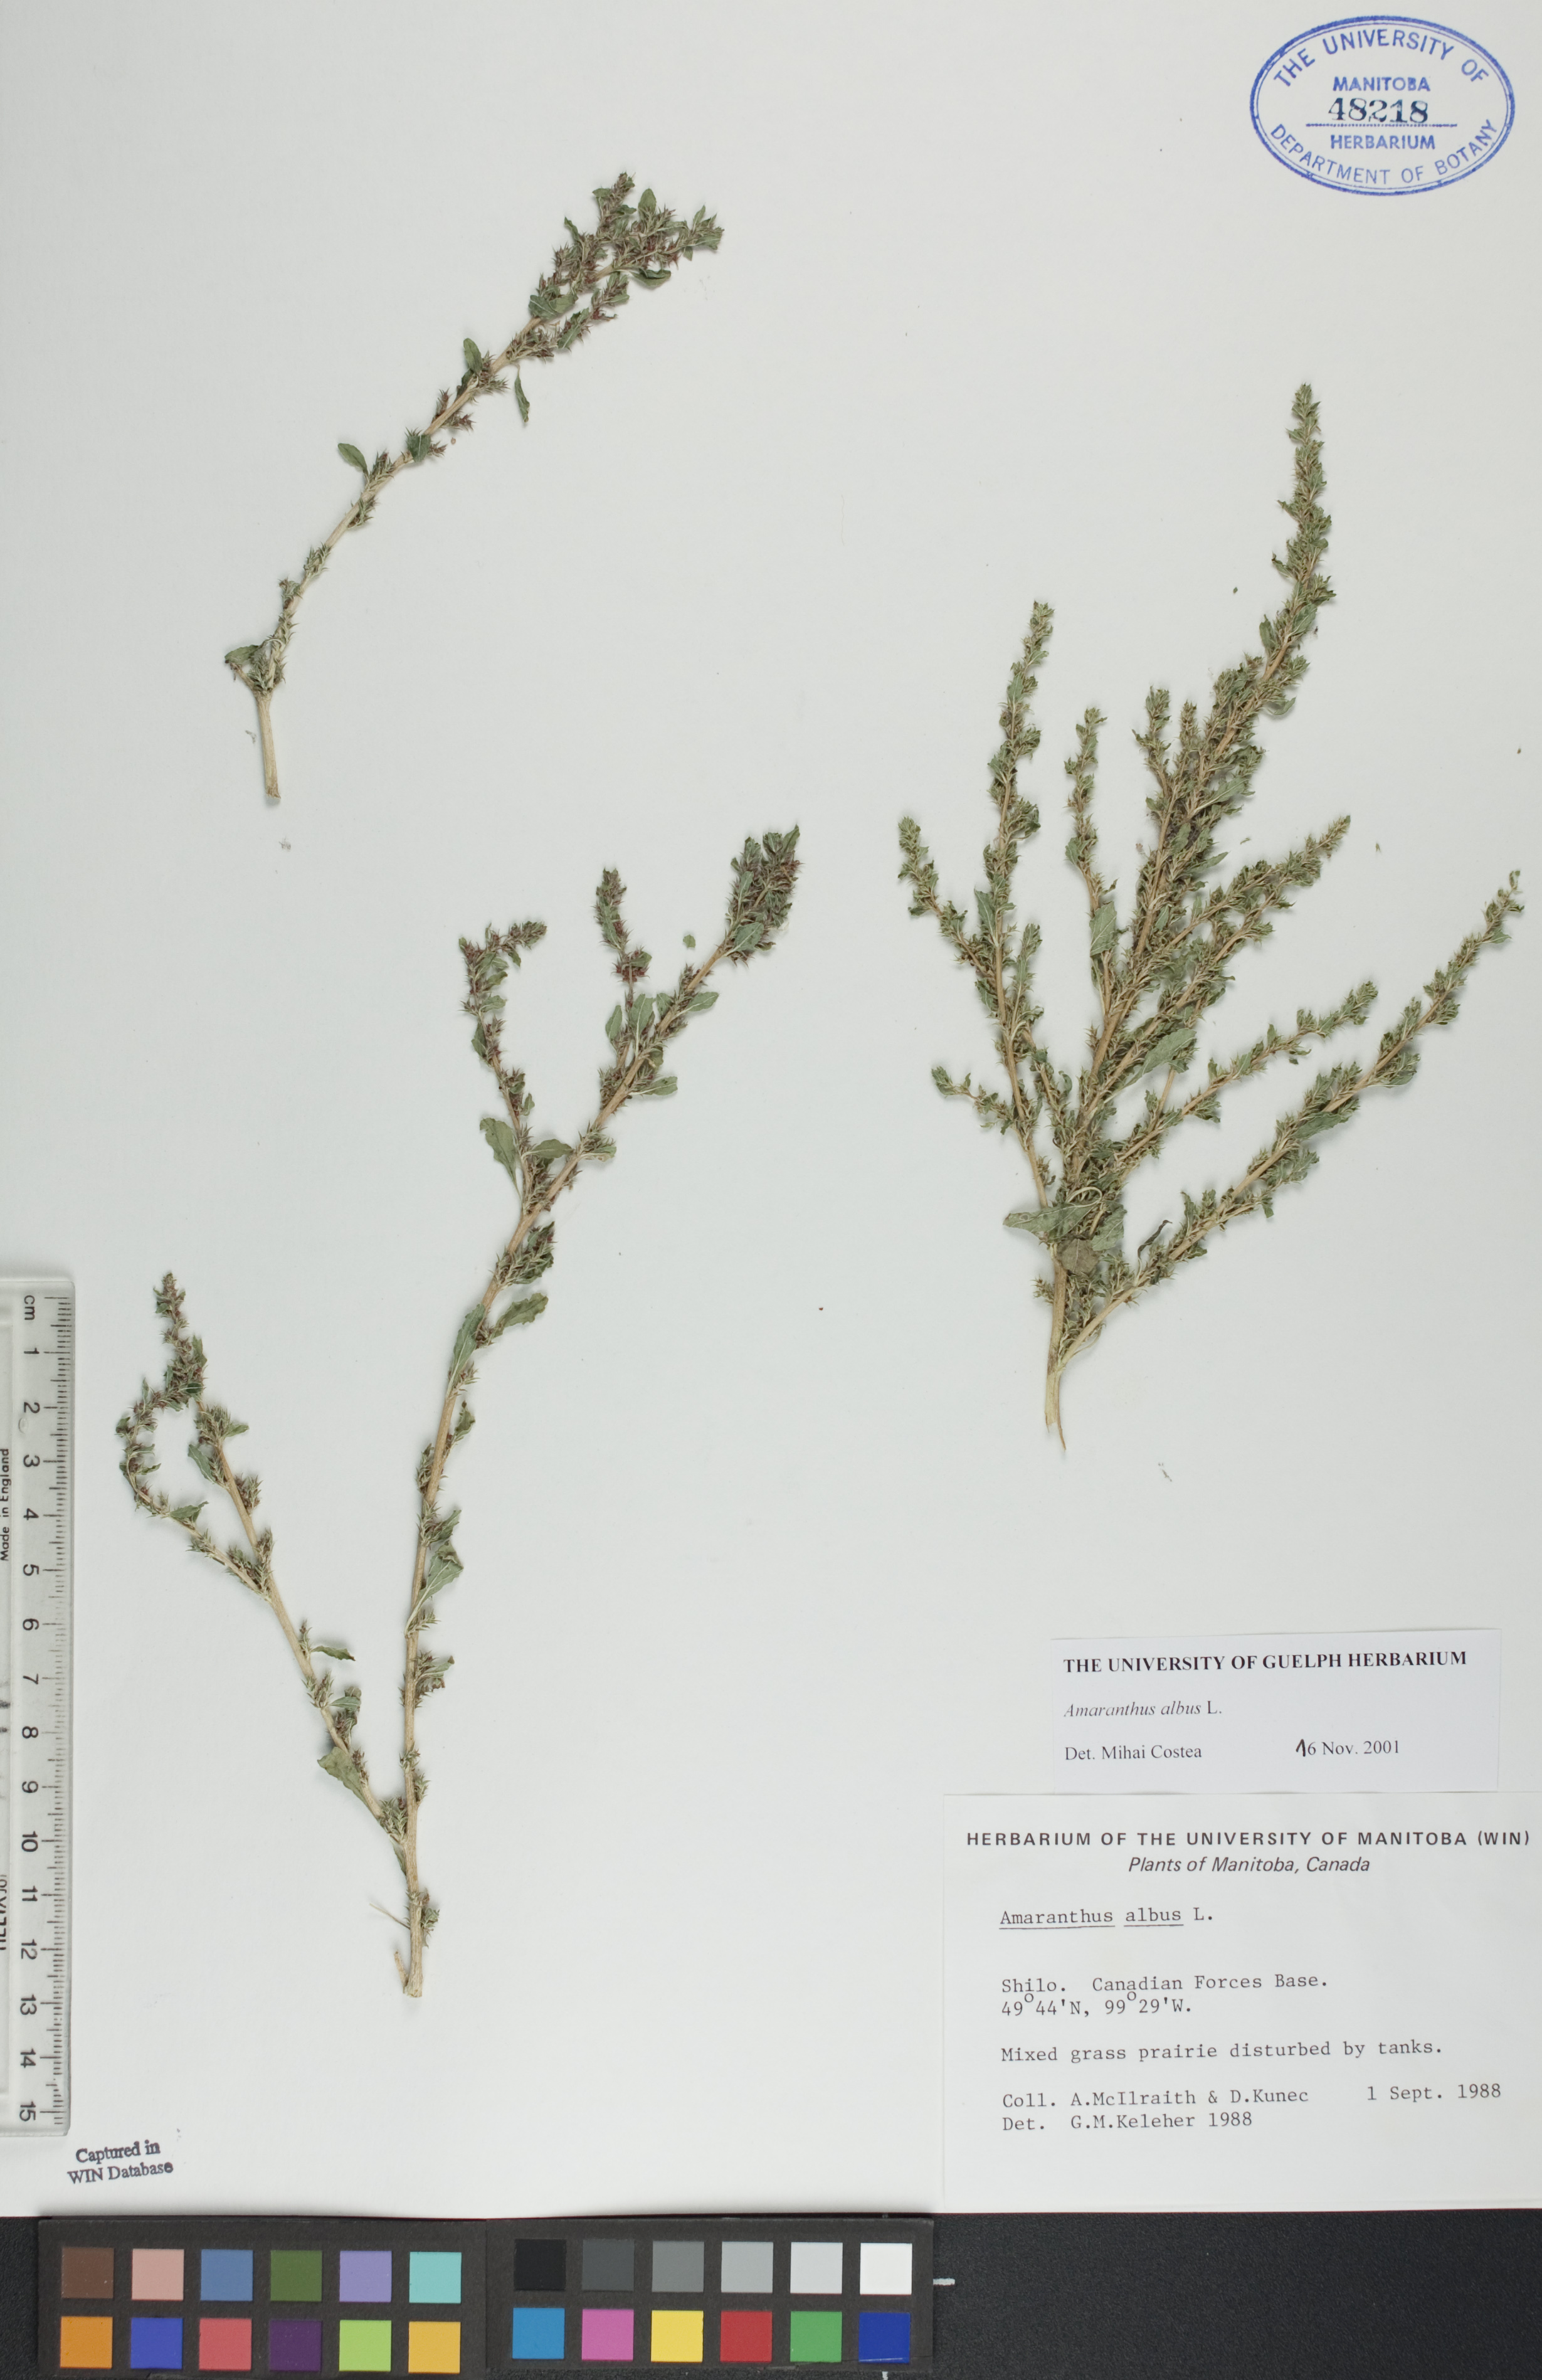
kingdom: Plantae
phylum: Tracheophyta
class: Magnoliopsida
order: Caryophyllales
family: Amaranthaceae
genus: Amaranthus
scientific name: Amaranthus albus
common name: White pigweed
